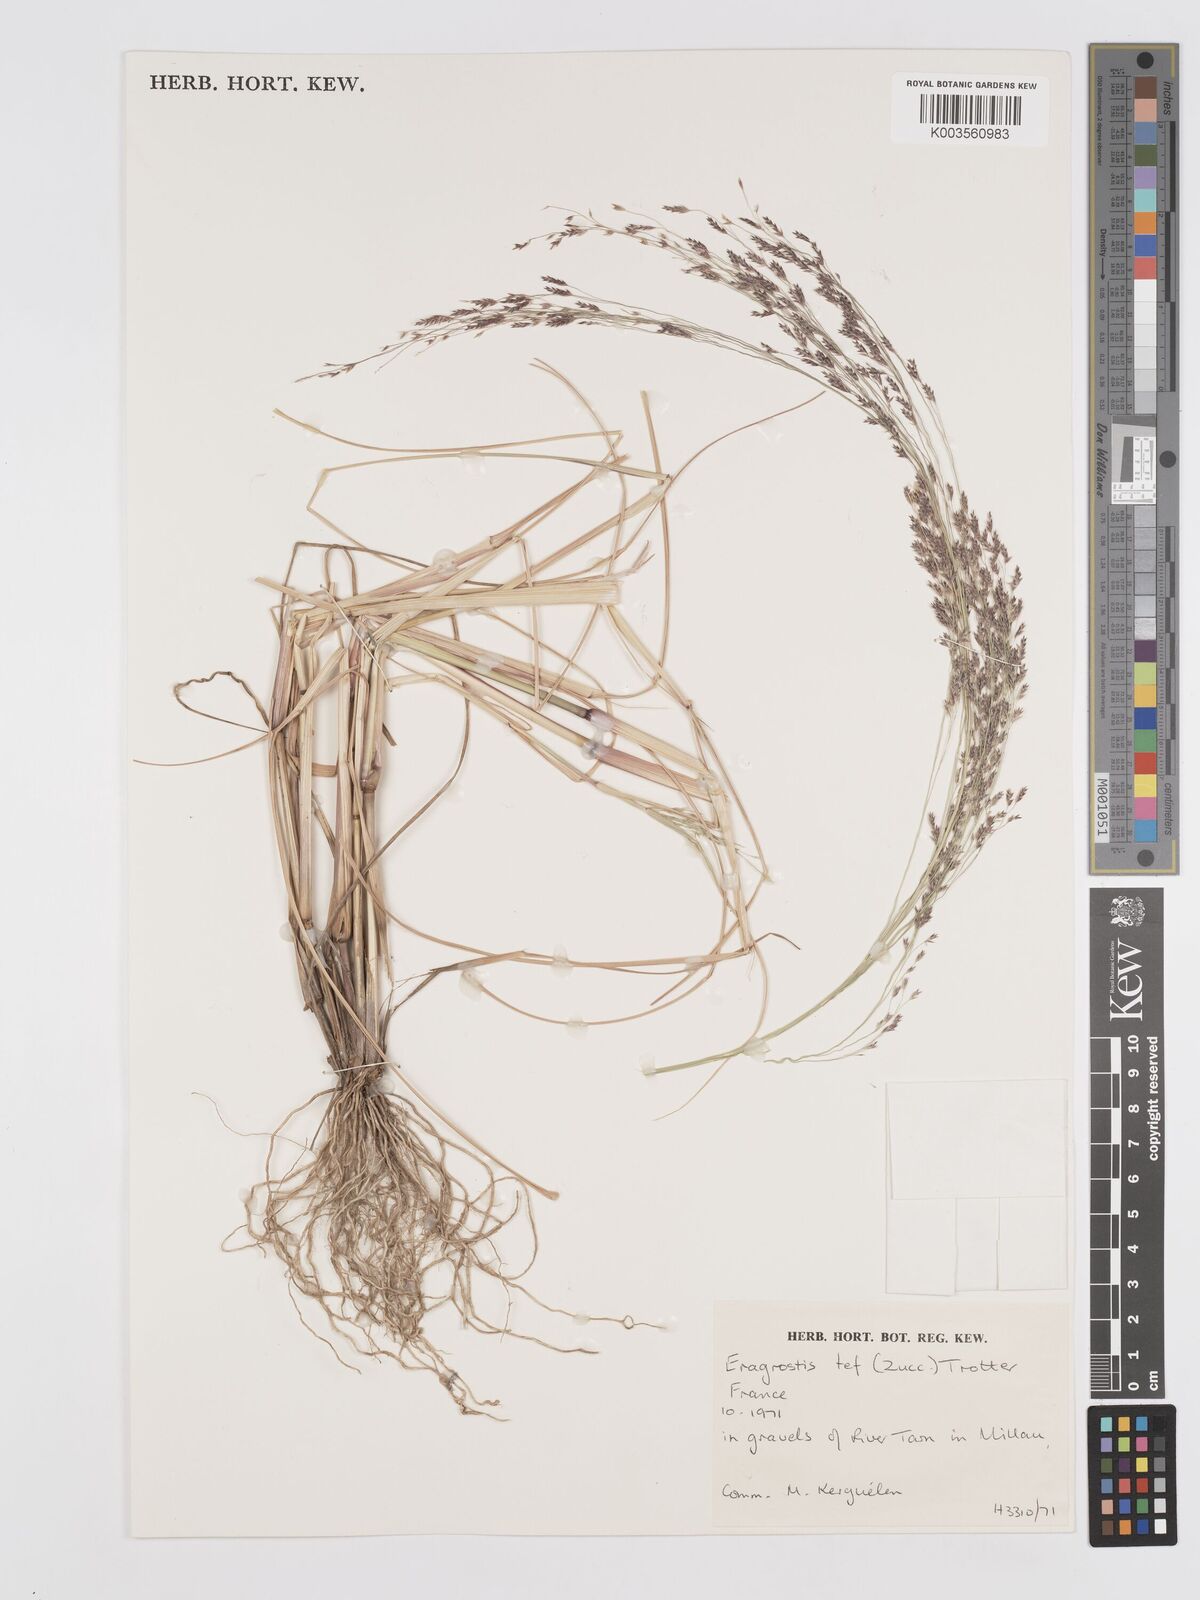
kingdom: Plantae
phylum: Tracheophyta
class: Liliopsida
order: Poales
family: Poaceae
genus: Eragrostis
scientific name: Eragrostis tef
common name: Teff
